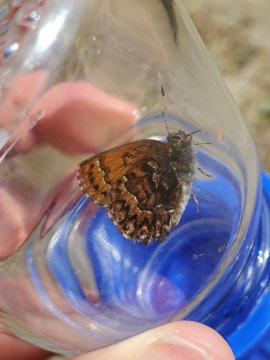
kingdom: Animalia
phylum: Arthropoda
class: Insecta
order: Lepidoptera
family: Lycaenidae
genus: Incisalia
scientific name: Incisalia eryphon
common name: Western Pine Elfin
